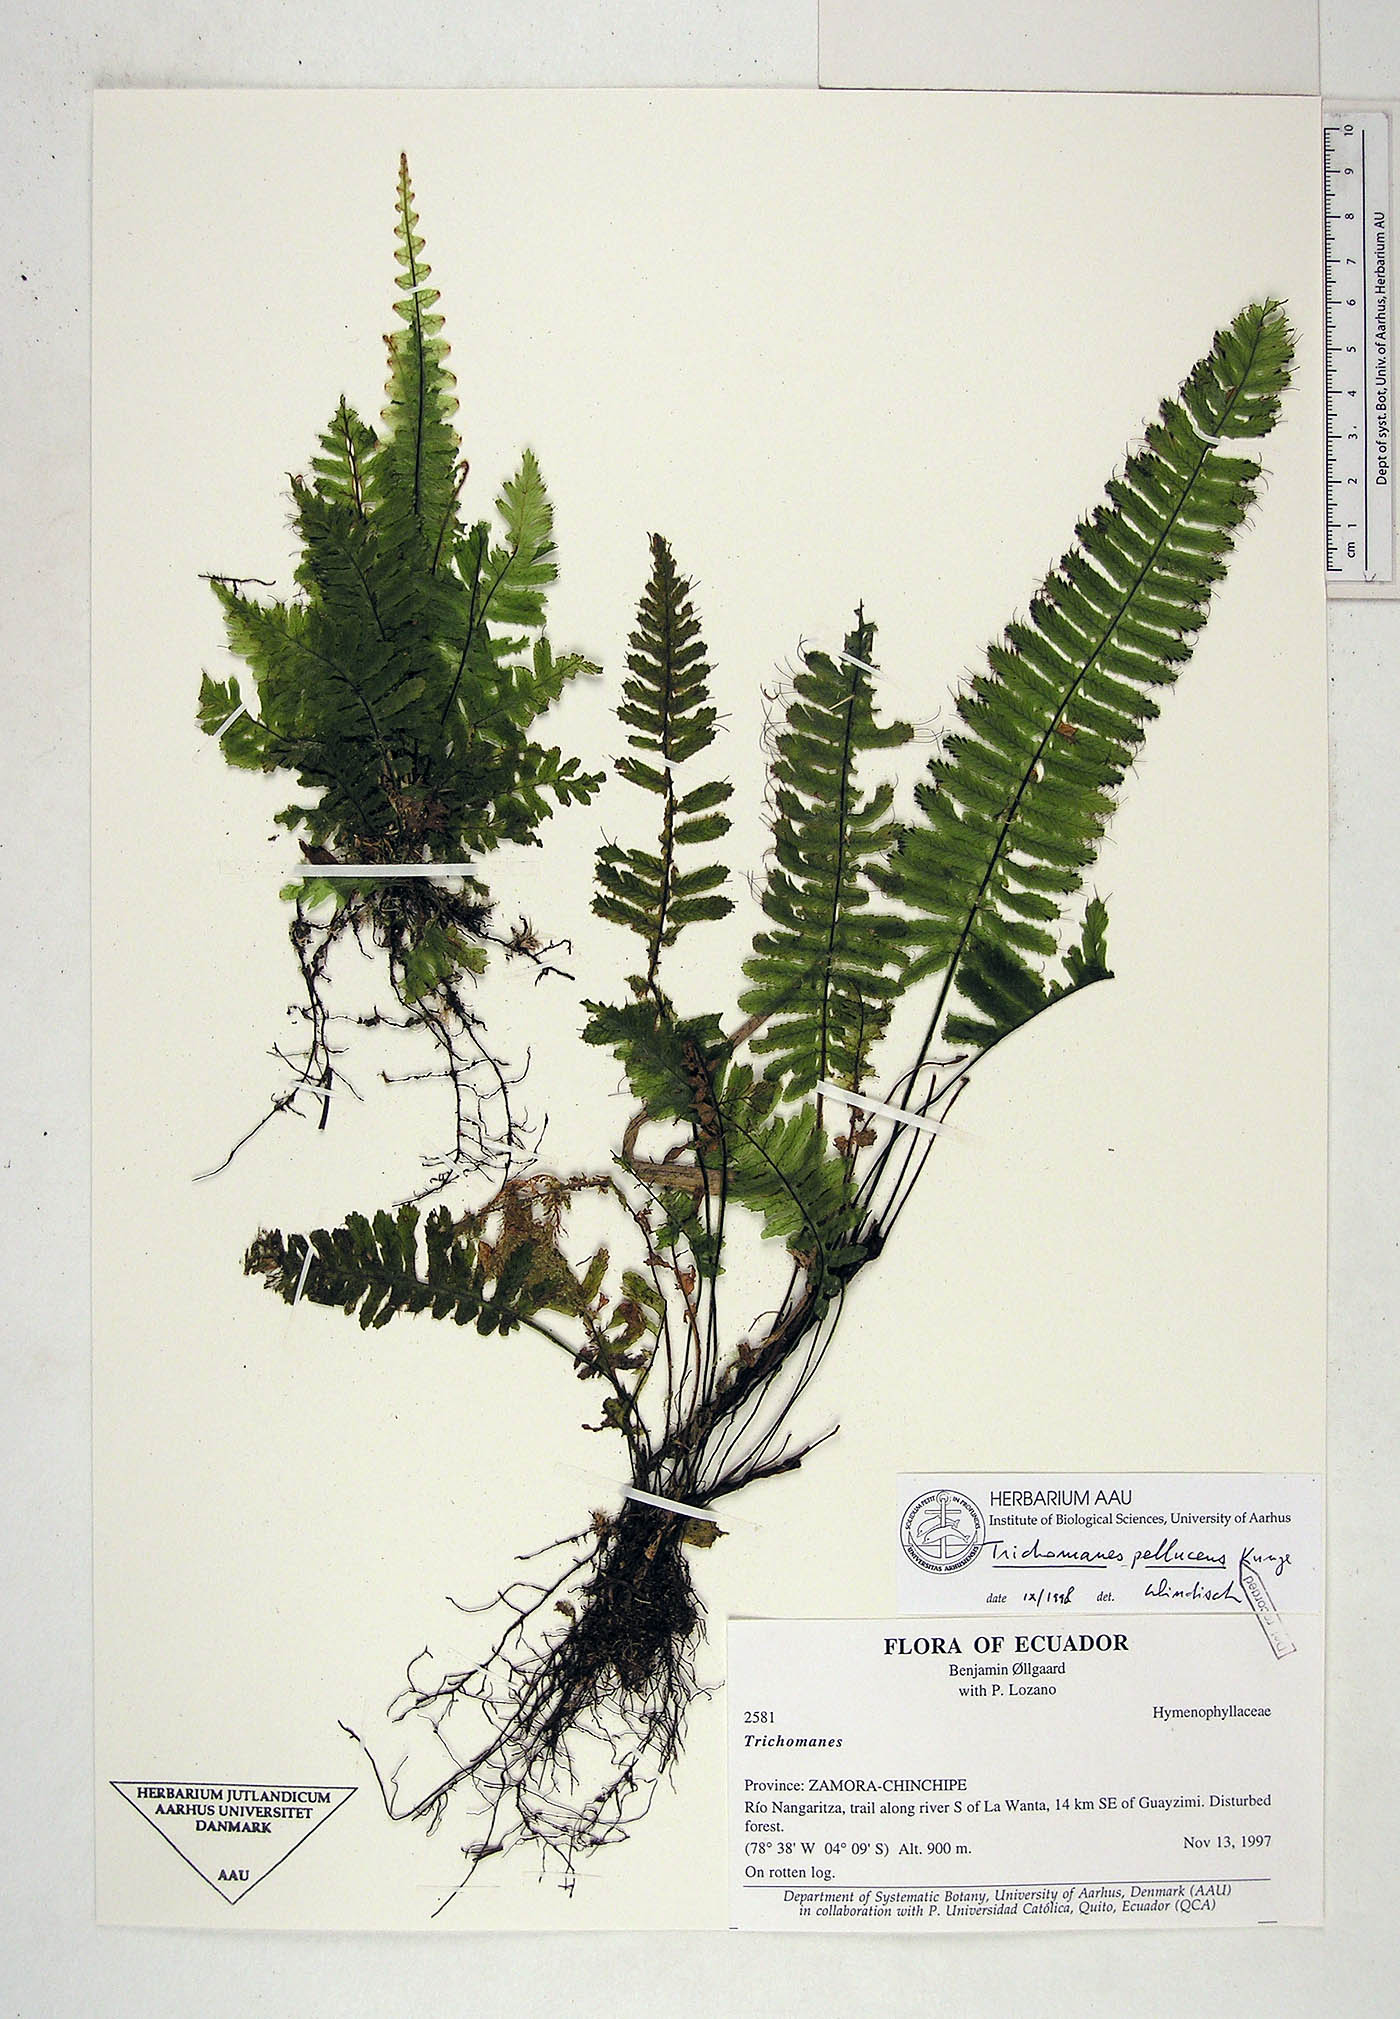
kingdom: Plantae
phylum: Tracheophyta
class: Polypodiopsida
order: Hymenophyllales
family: Hymenophyllaceae
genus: Trichomanes
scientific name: Trichomanes pellucens
